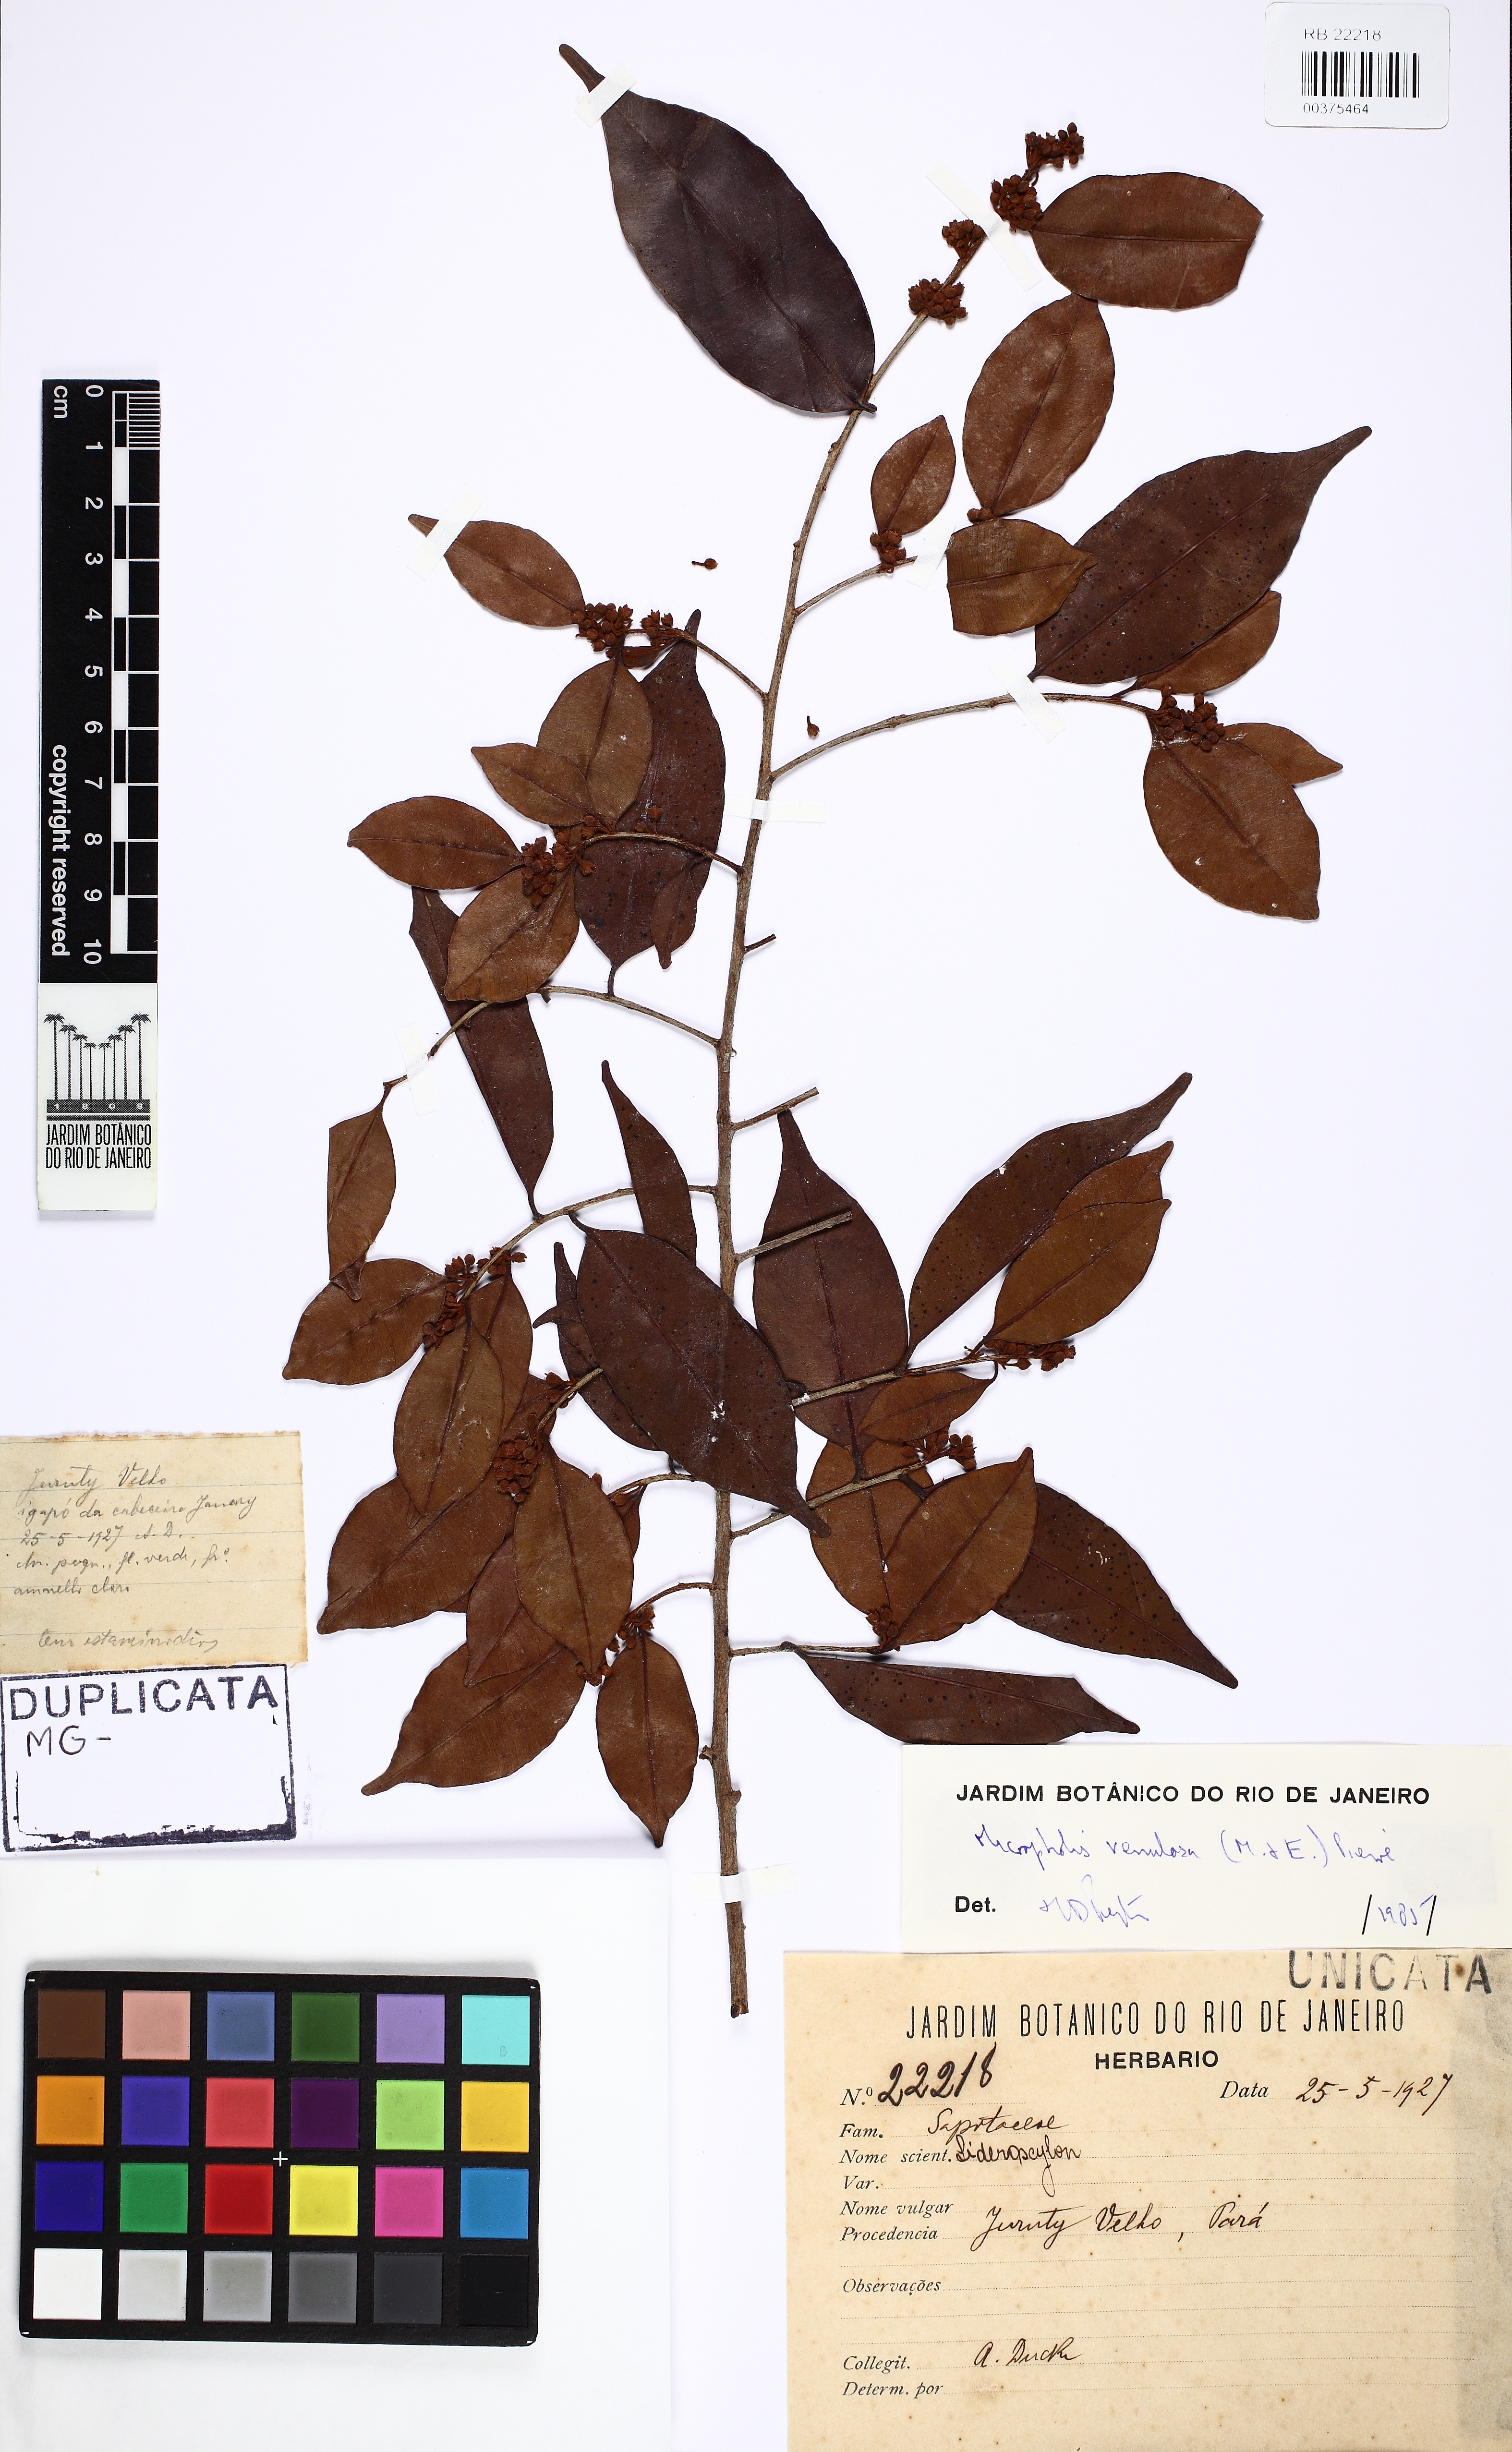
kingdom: Plantae
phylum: Tracheophyta
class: Magnoliopsida
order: Ericales
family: Sapotaceae
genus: Micropholis
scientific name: Micropholis venulosa
